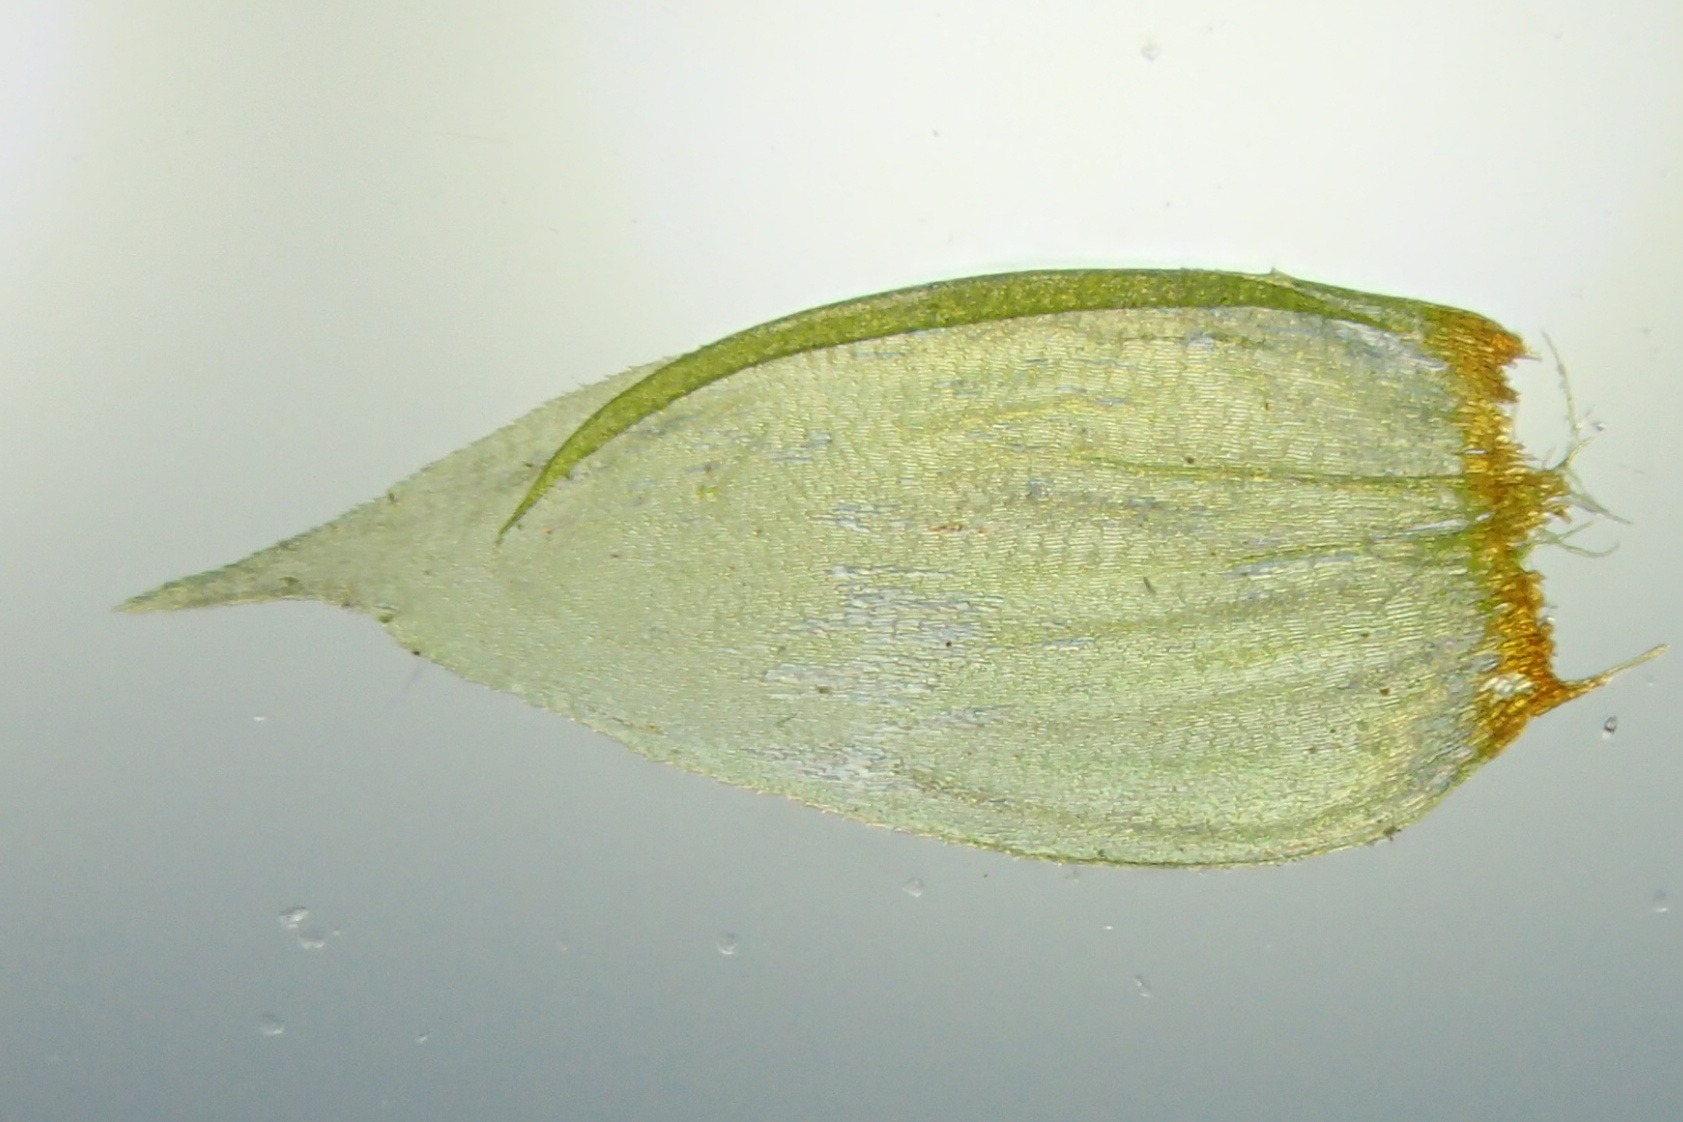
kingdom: Plantae
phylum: Bryophyta
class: Bryopsida
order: Hypnales
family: Hylocomiaceae
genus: Hylocomium
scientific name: Hylocomium splendens
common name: Almindelig etagemos
